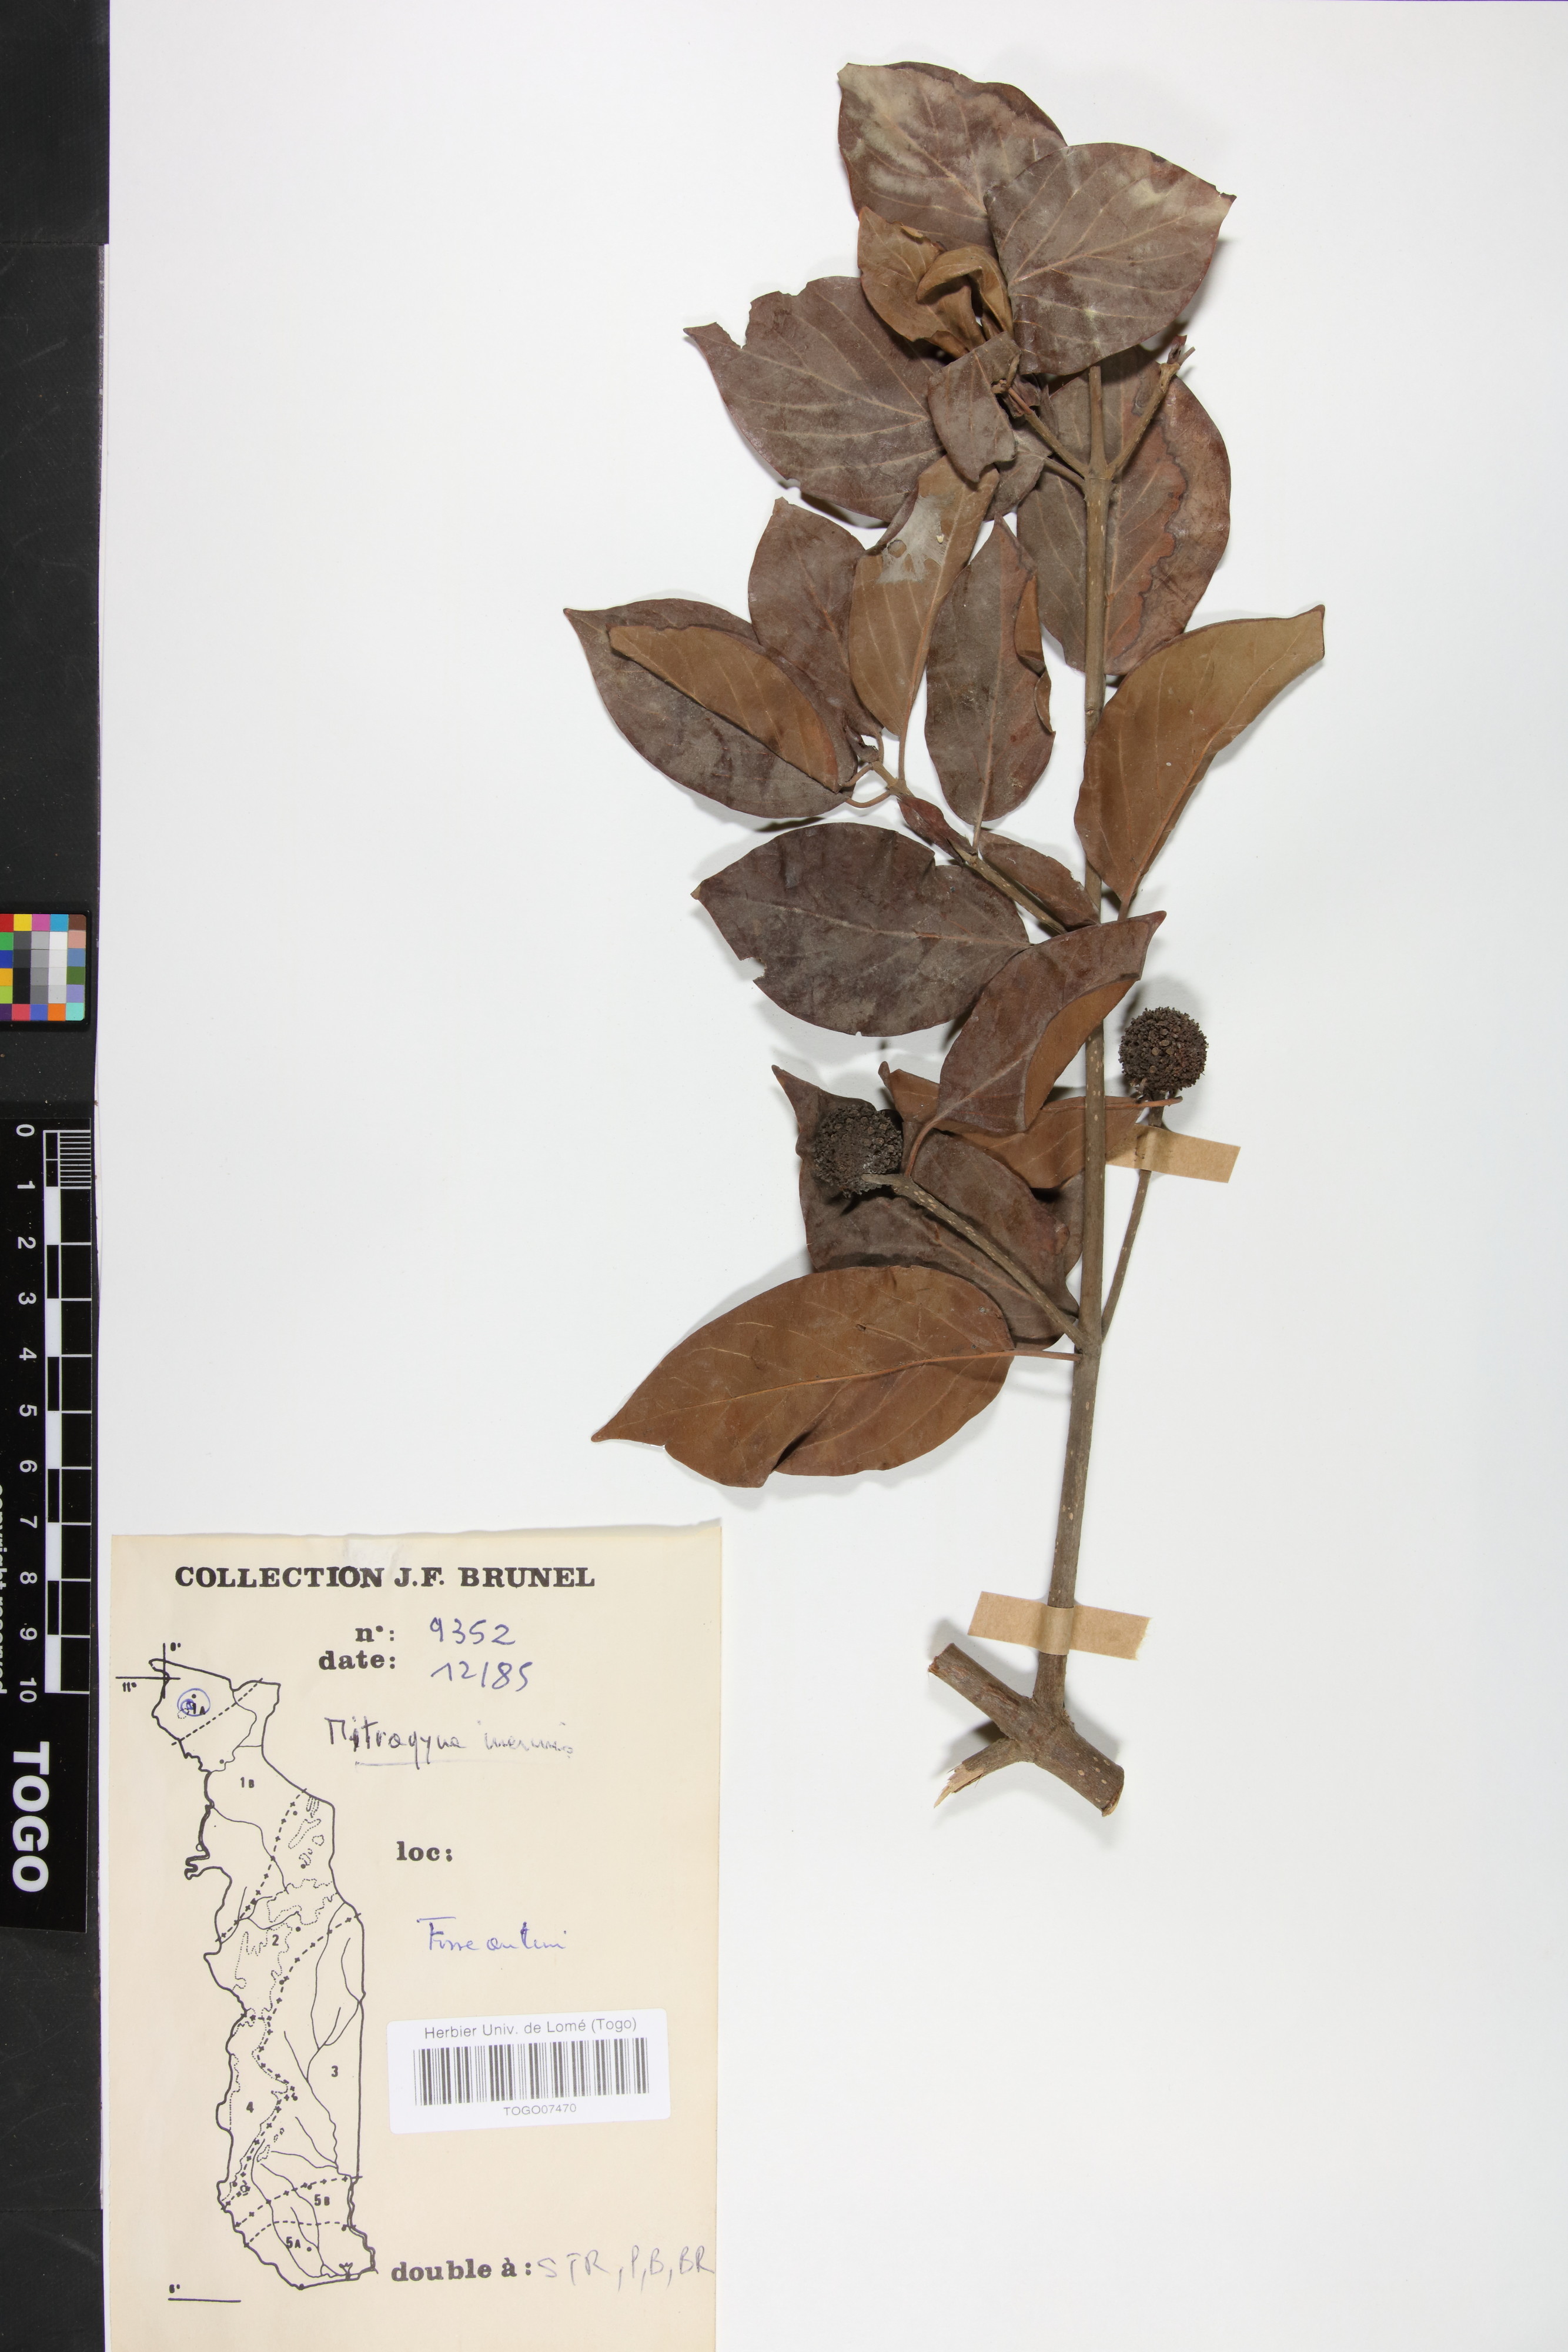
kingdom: Plantae
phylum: Tracheophyta
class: Magnoliopsida
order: Gentianales
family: Rubiaceae
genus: Mitragyna
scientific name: Mitragyna inermis
